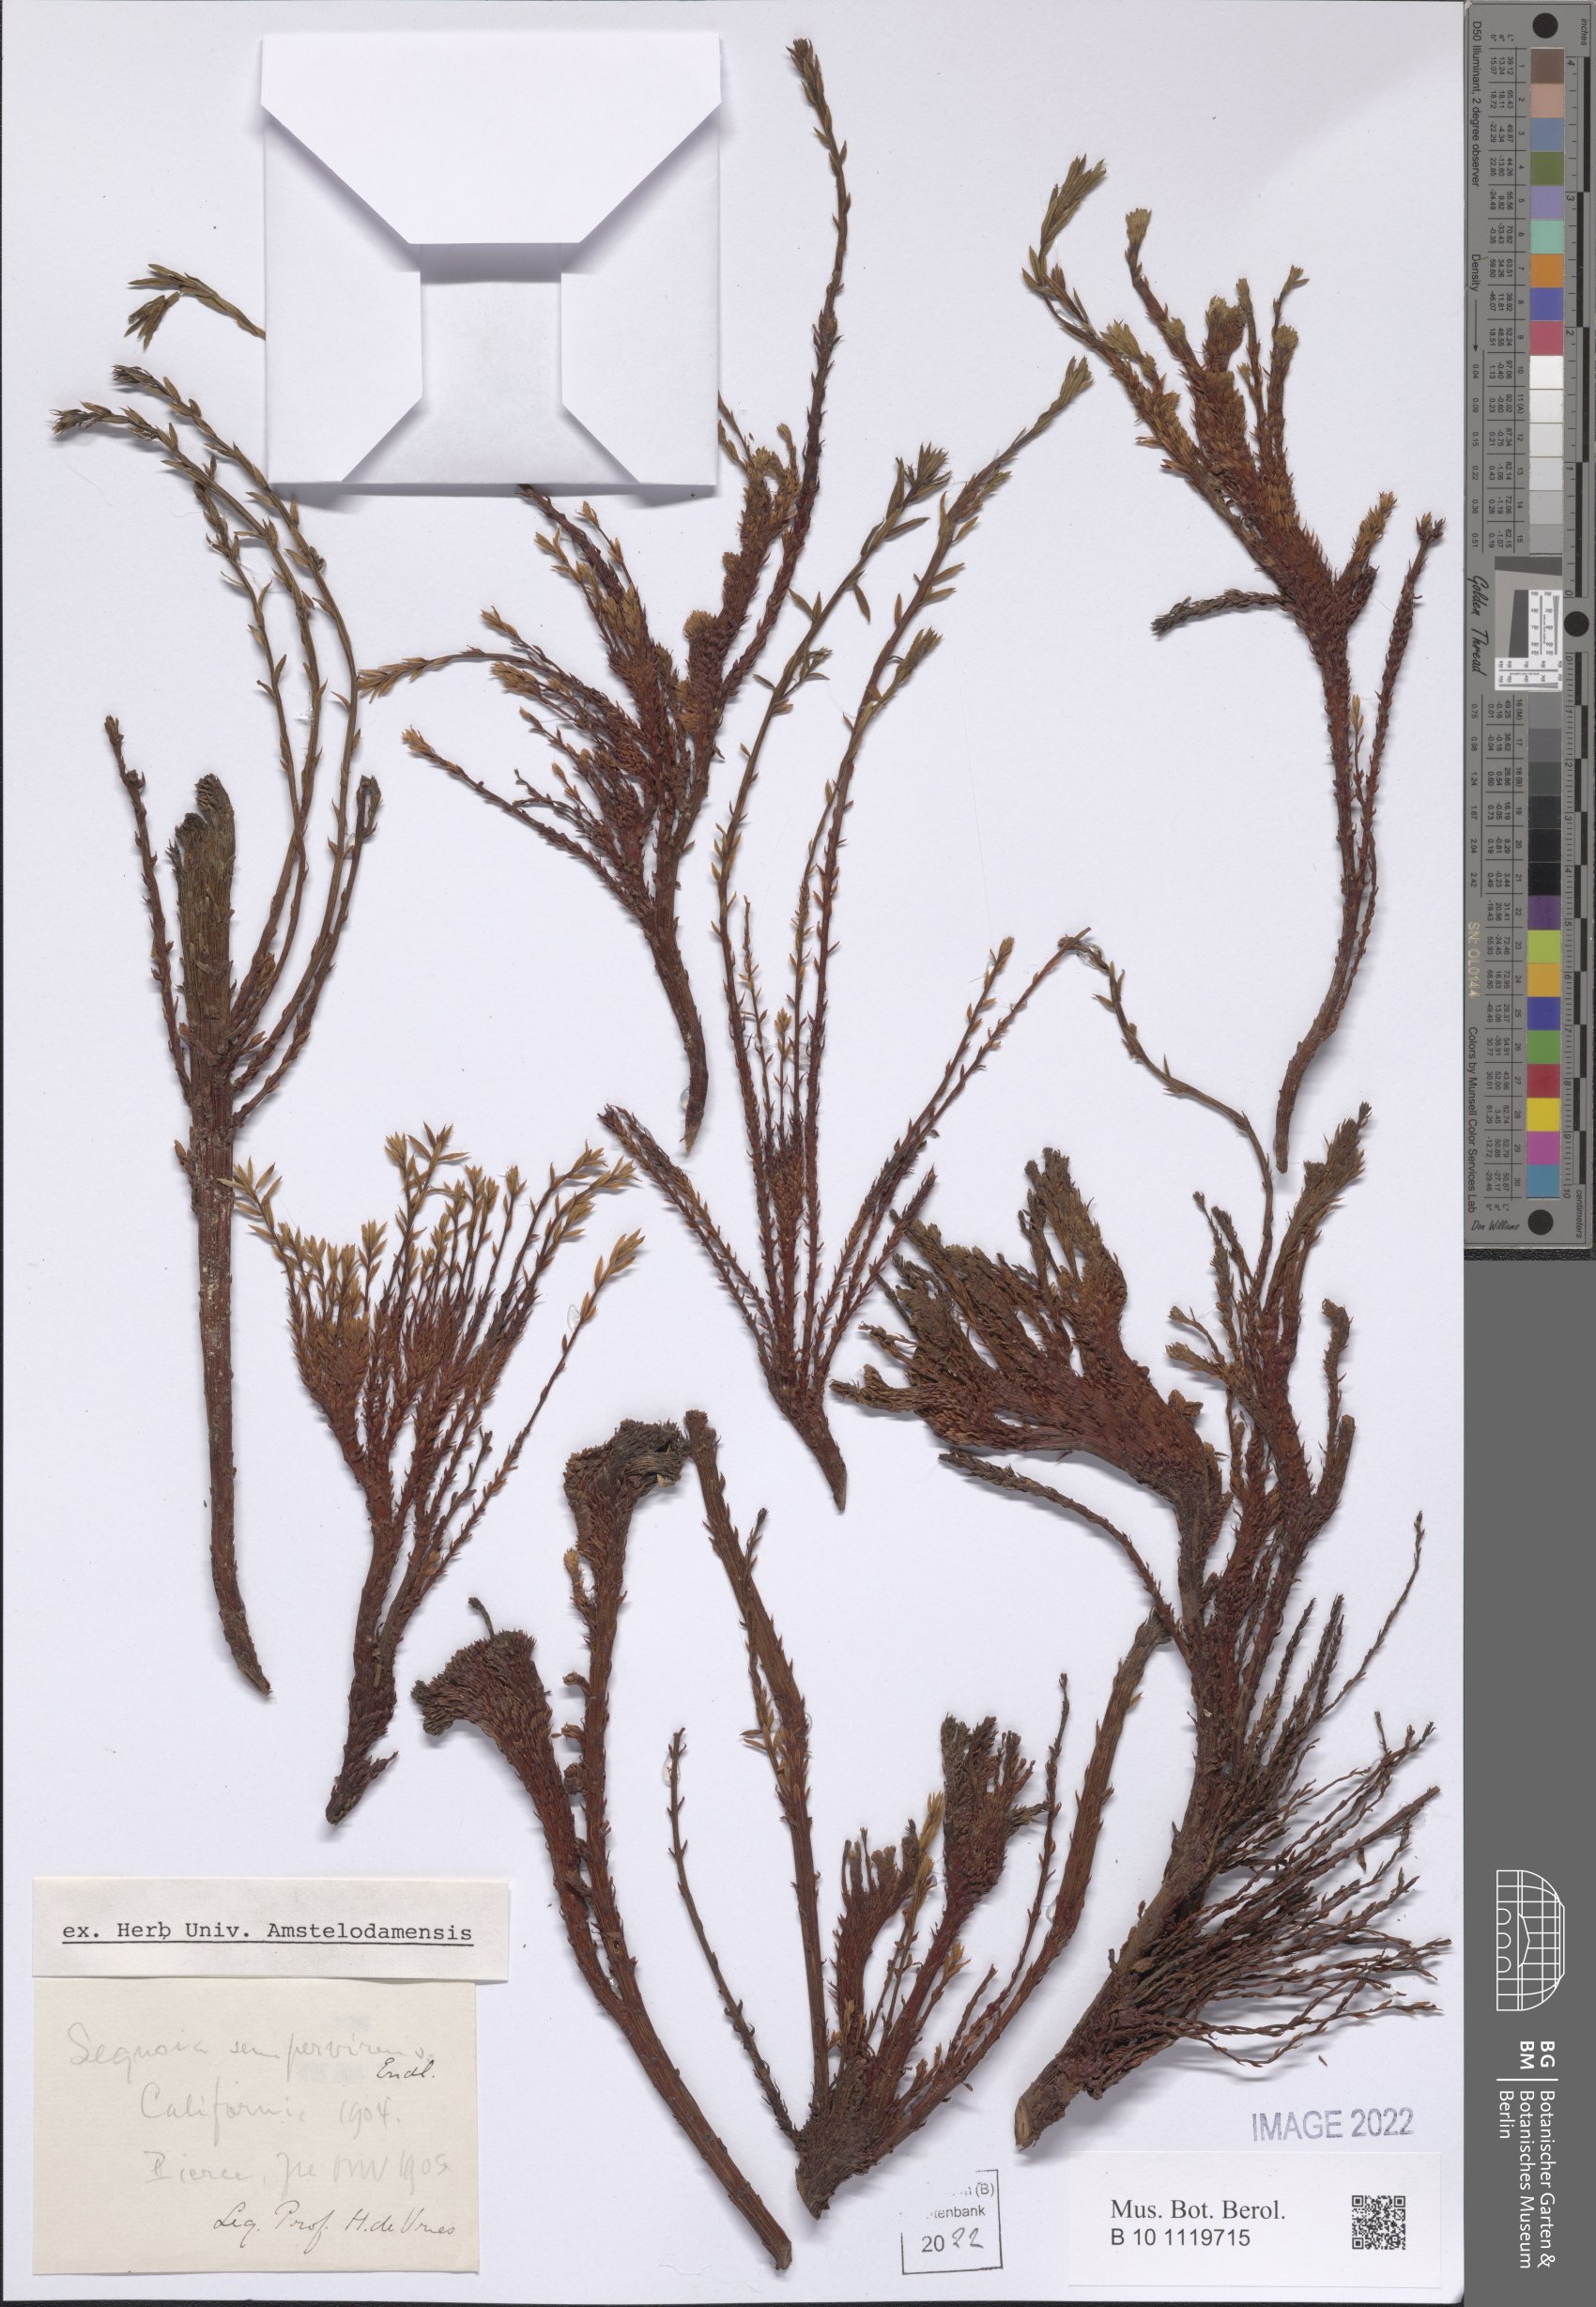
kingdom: Plantae
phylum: Tracheophyta
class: Pinopsida
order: Pinales
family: Cupressaceae
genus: Sequoia
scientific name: Sequoia sempervirens
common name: Coast redwood
